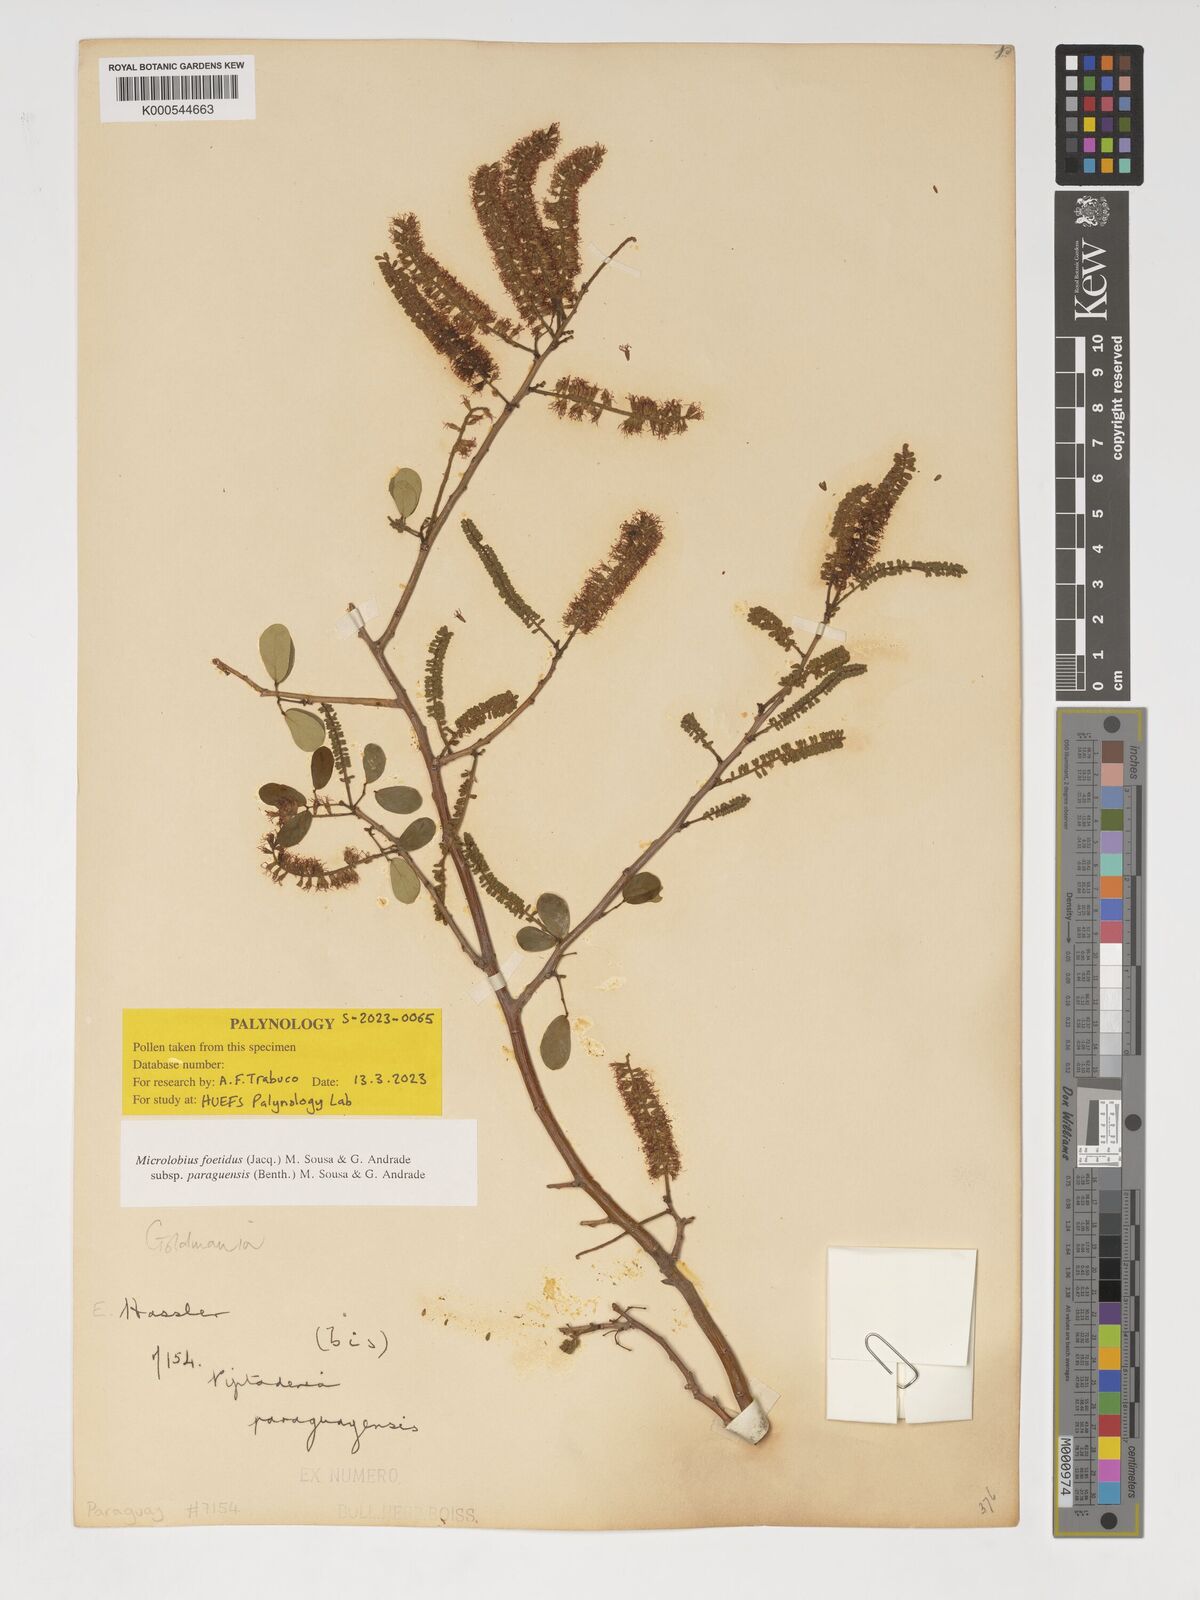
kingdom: Plantae
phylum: Tracheophyta
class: Magnoliopsida
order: Fabales
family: Fabaceae
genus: Microlobius
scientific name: Microlobius foetidus
